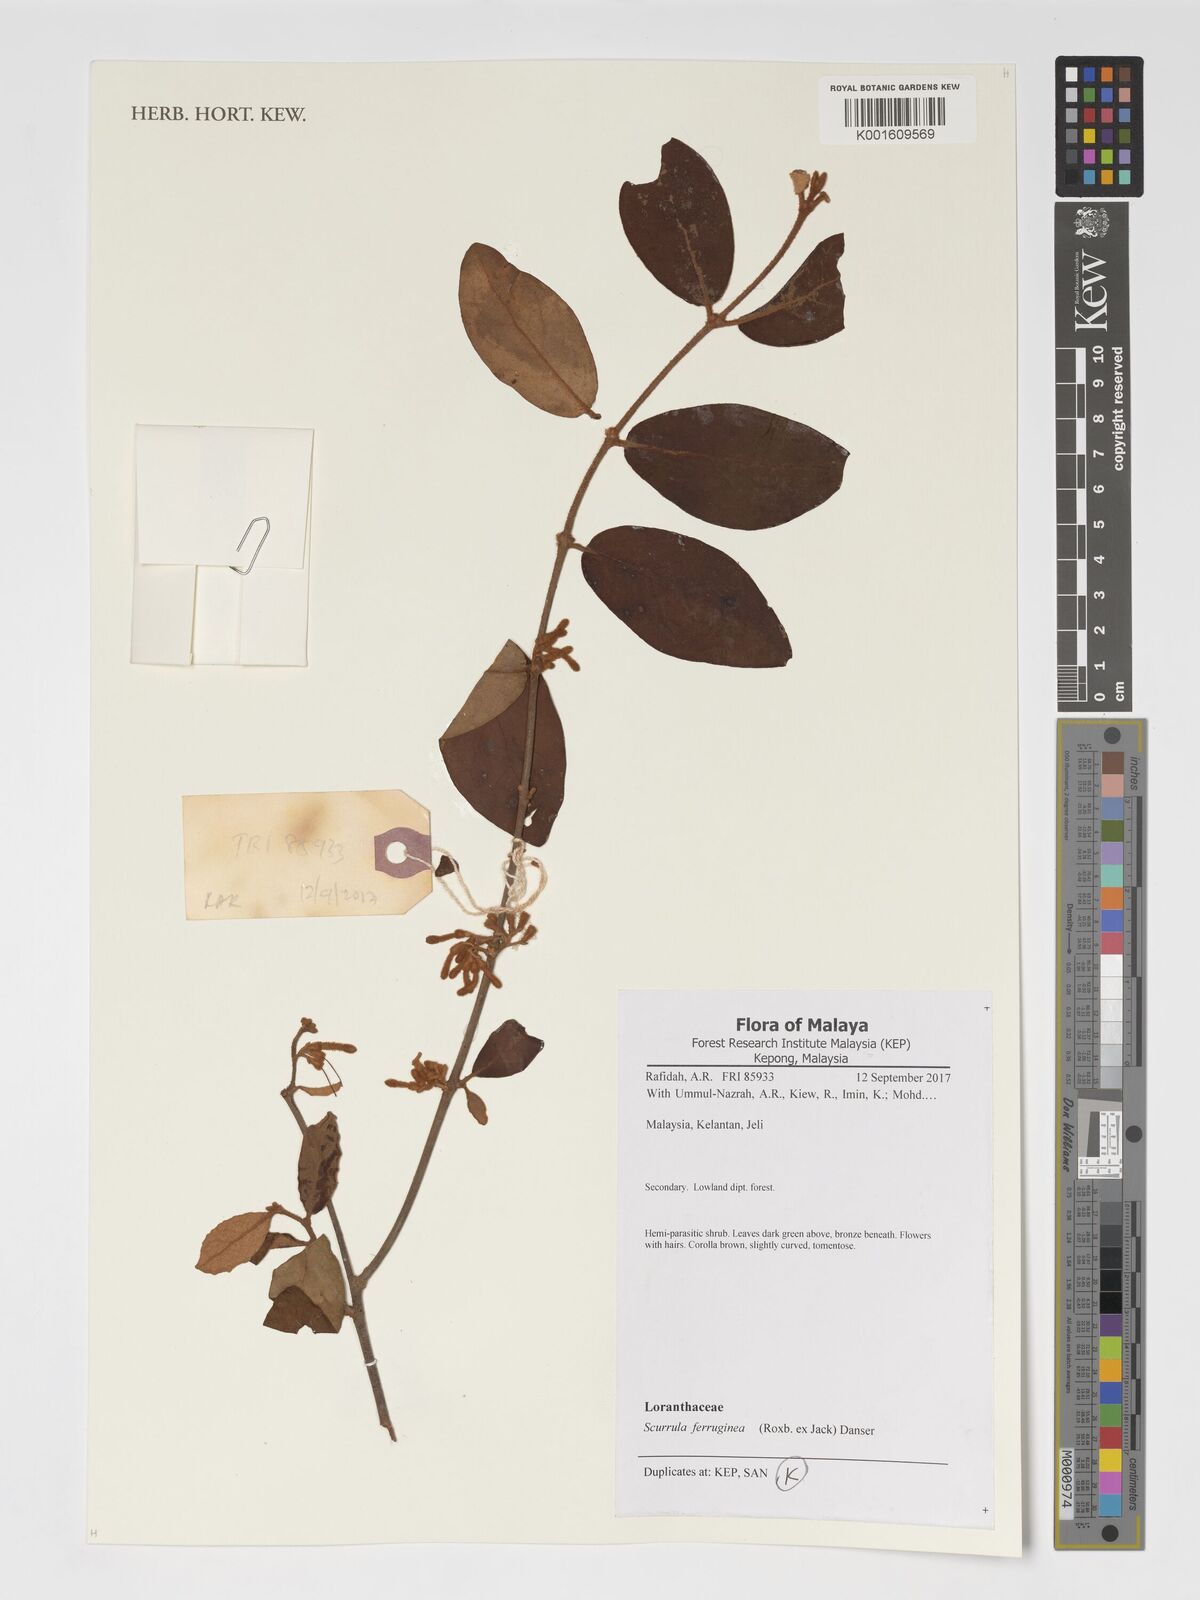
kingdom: Plantae
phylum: Tracheophyta
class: Magnoliopsida
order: Santalales
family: Loranthaceae
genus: Scurrula
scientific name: Scurrula ferruginea
